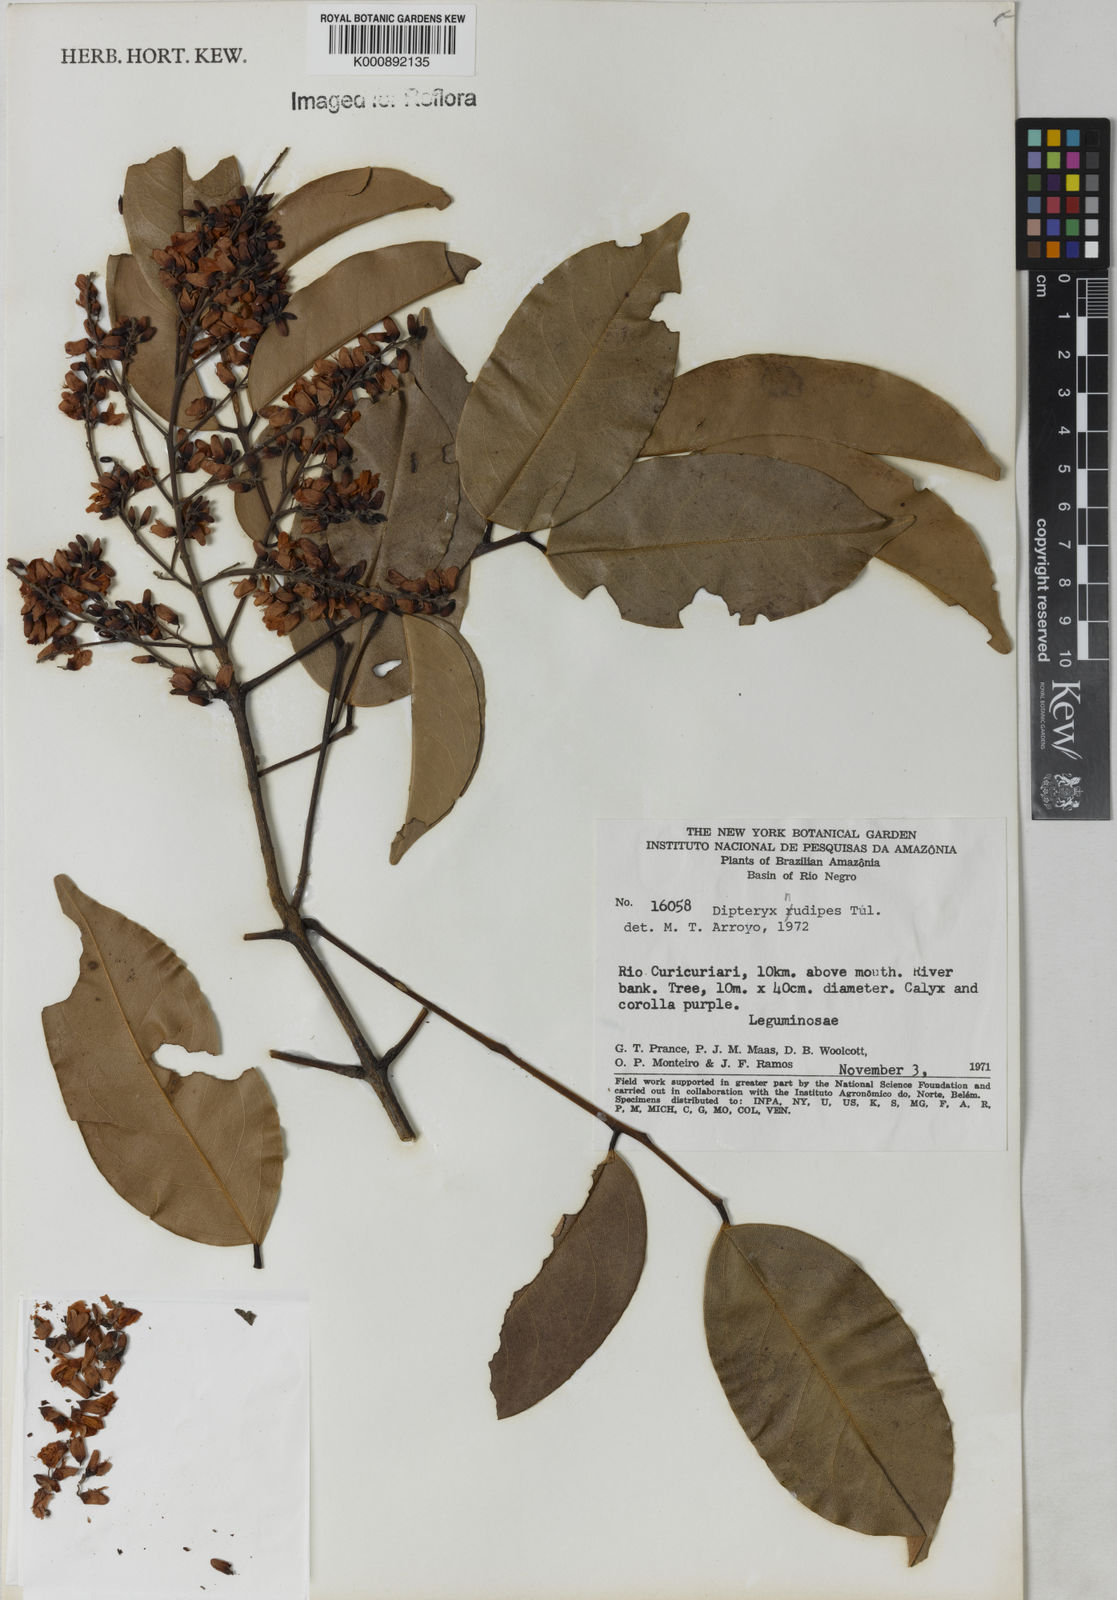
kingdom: Plantae
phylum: Tracheophyta
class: Magnoliopsida
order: Fabales
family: Fabaceae
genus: Taralea
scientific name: Taralea nudipes
